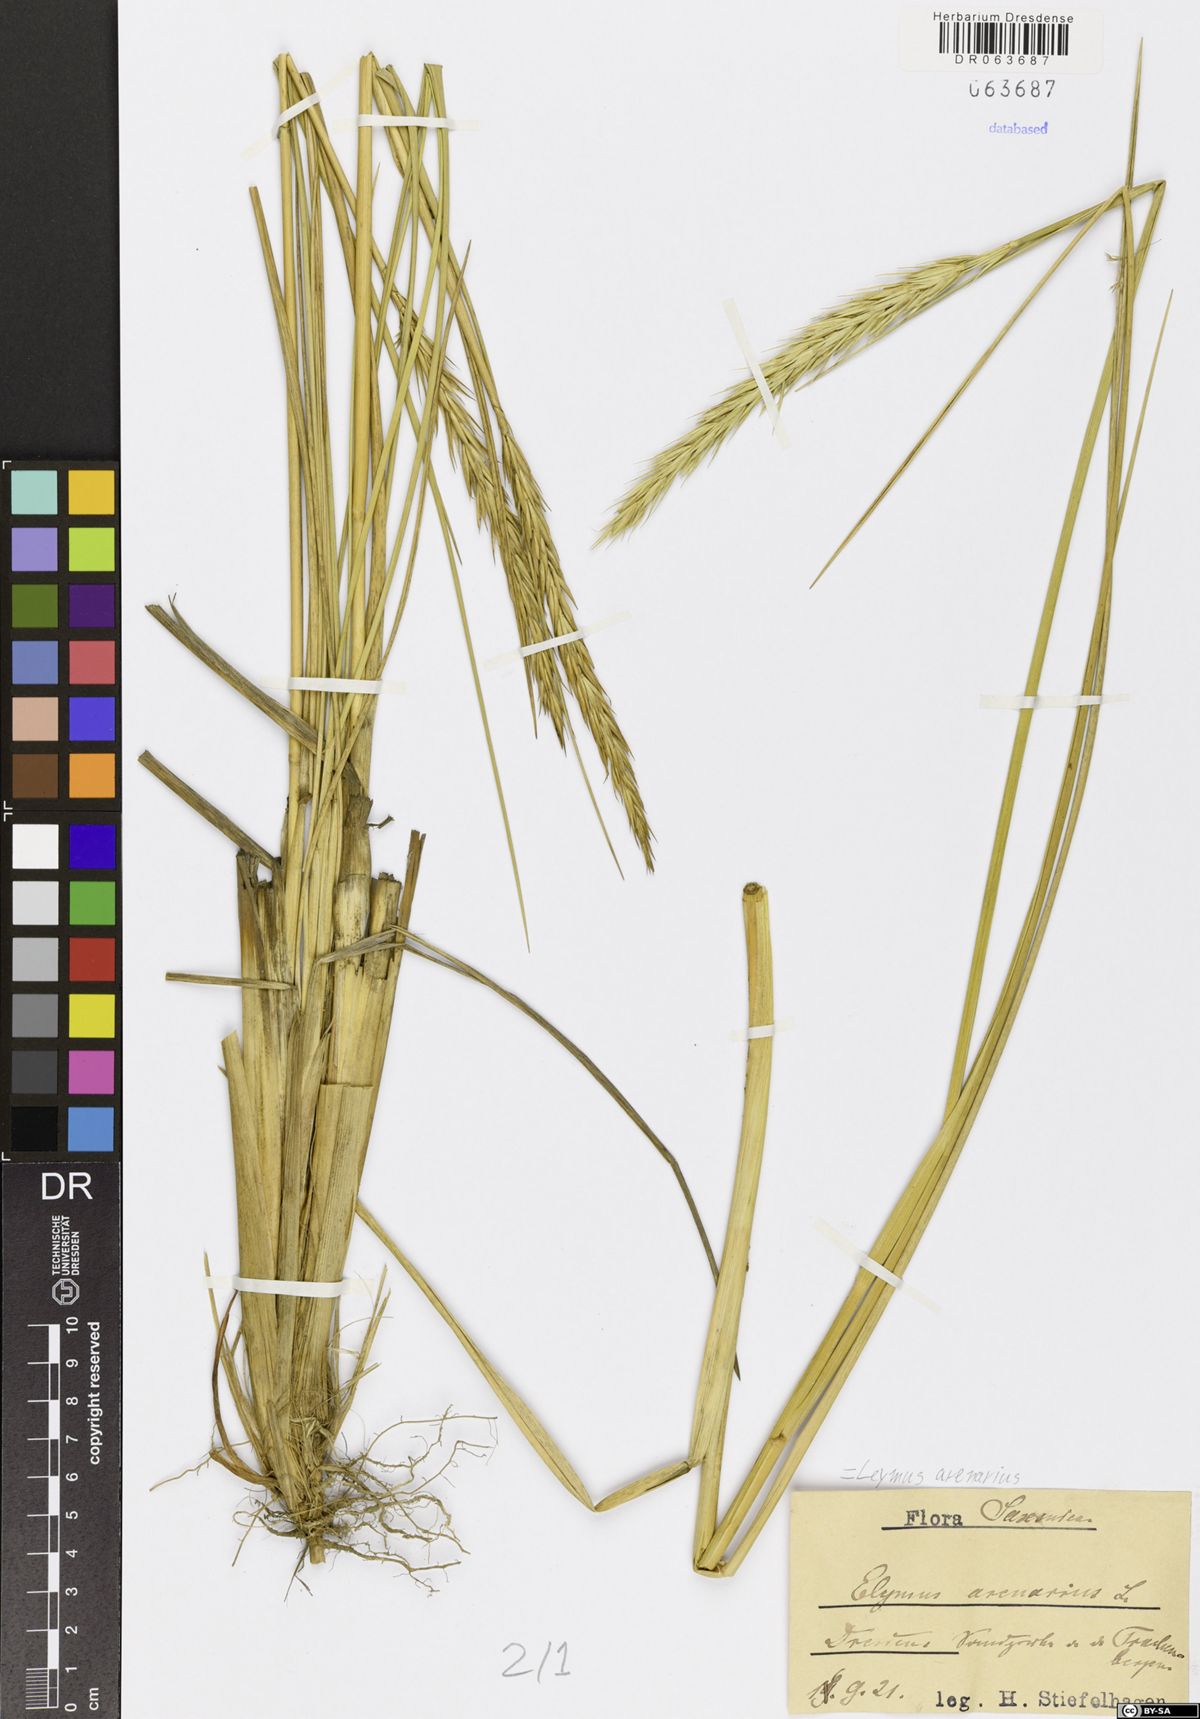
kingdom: Plantae
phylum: Tracheophyta
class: Liliopsida
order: Poales
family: Poaceae
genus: Leymus
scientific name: Leymus arenarius
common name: Lyme-grass
